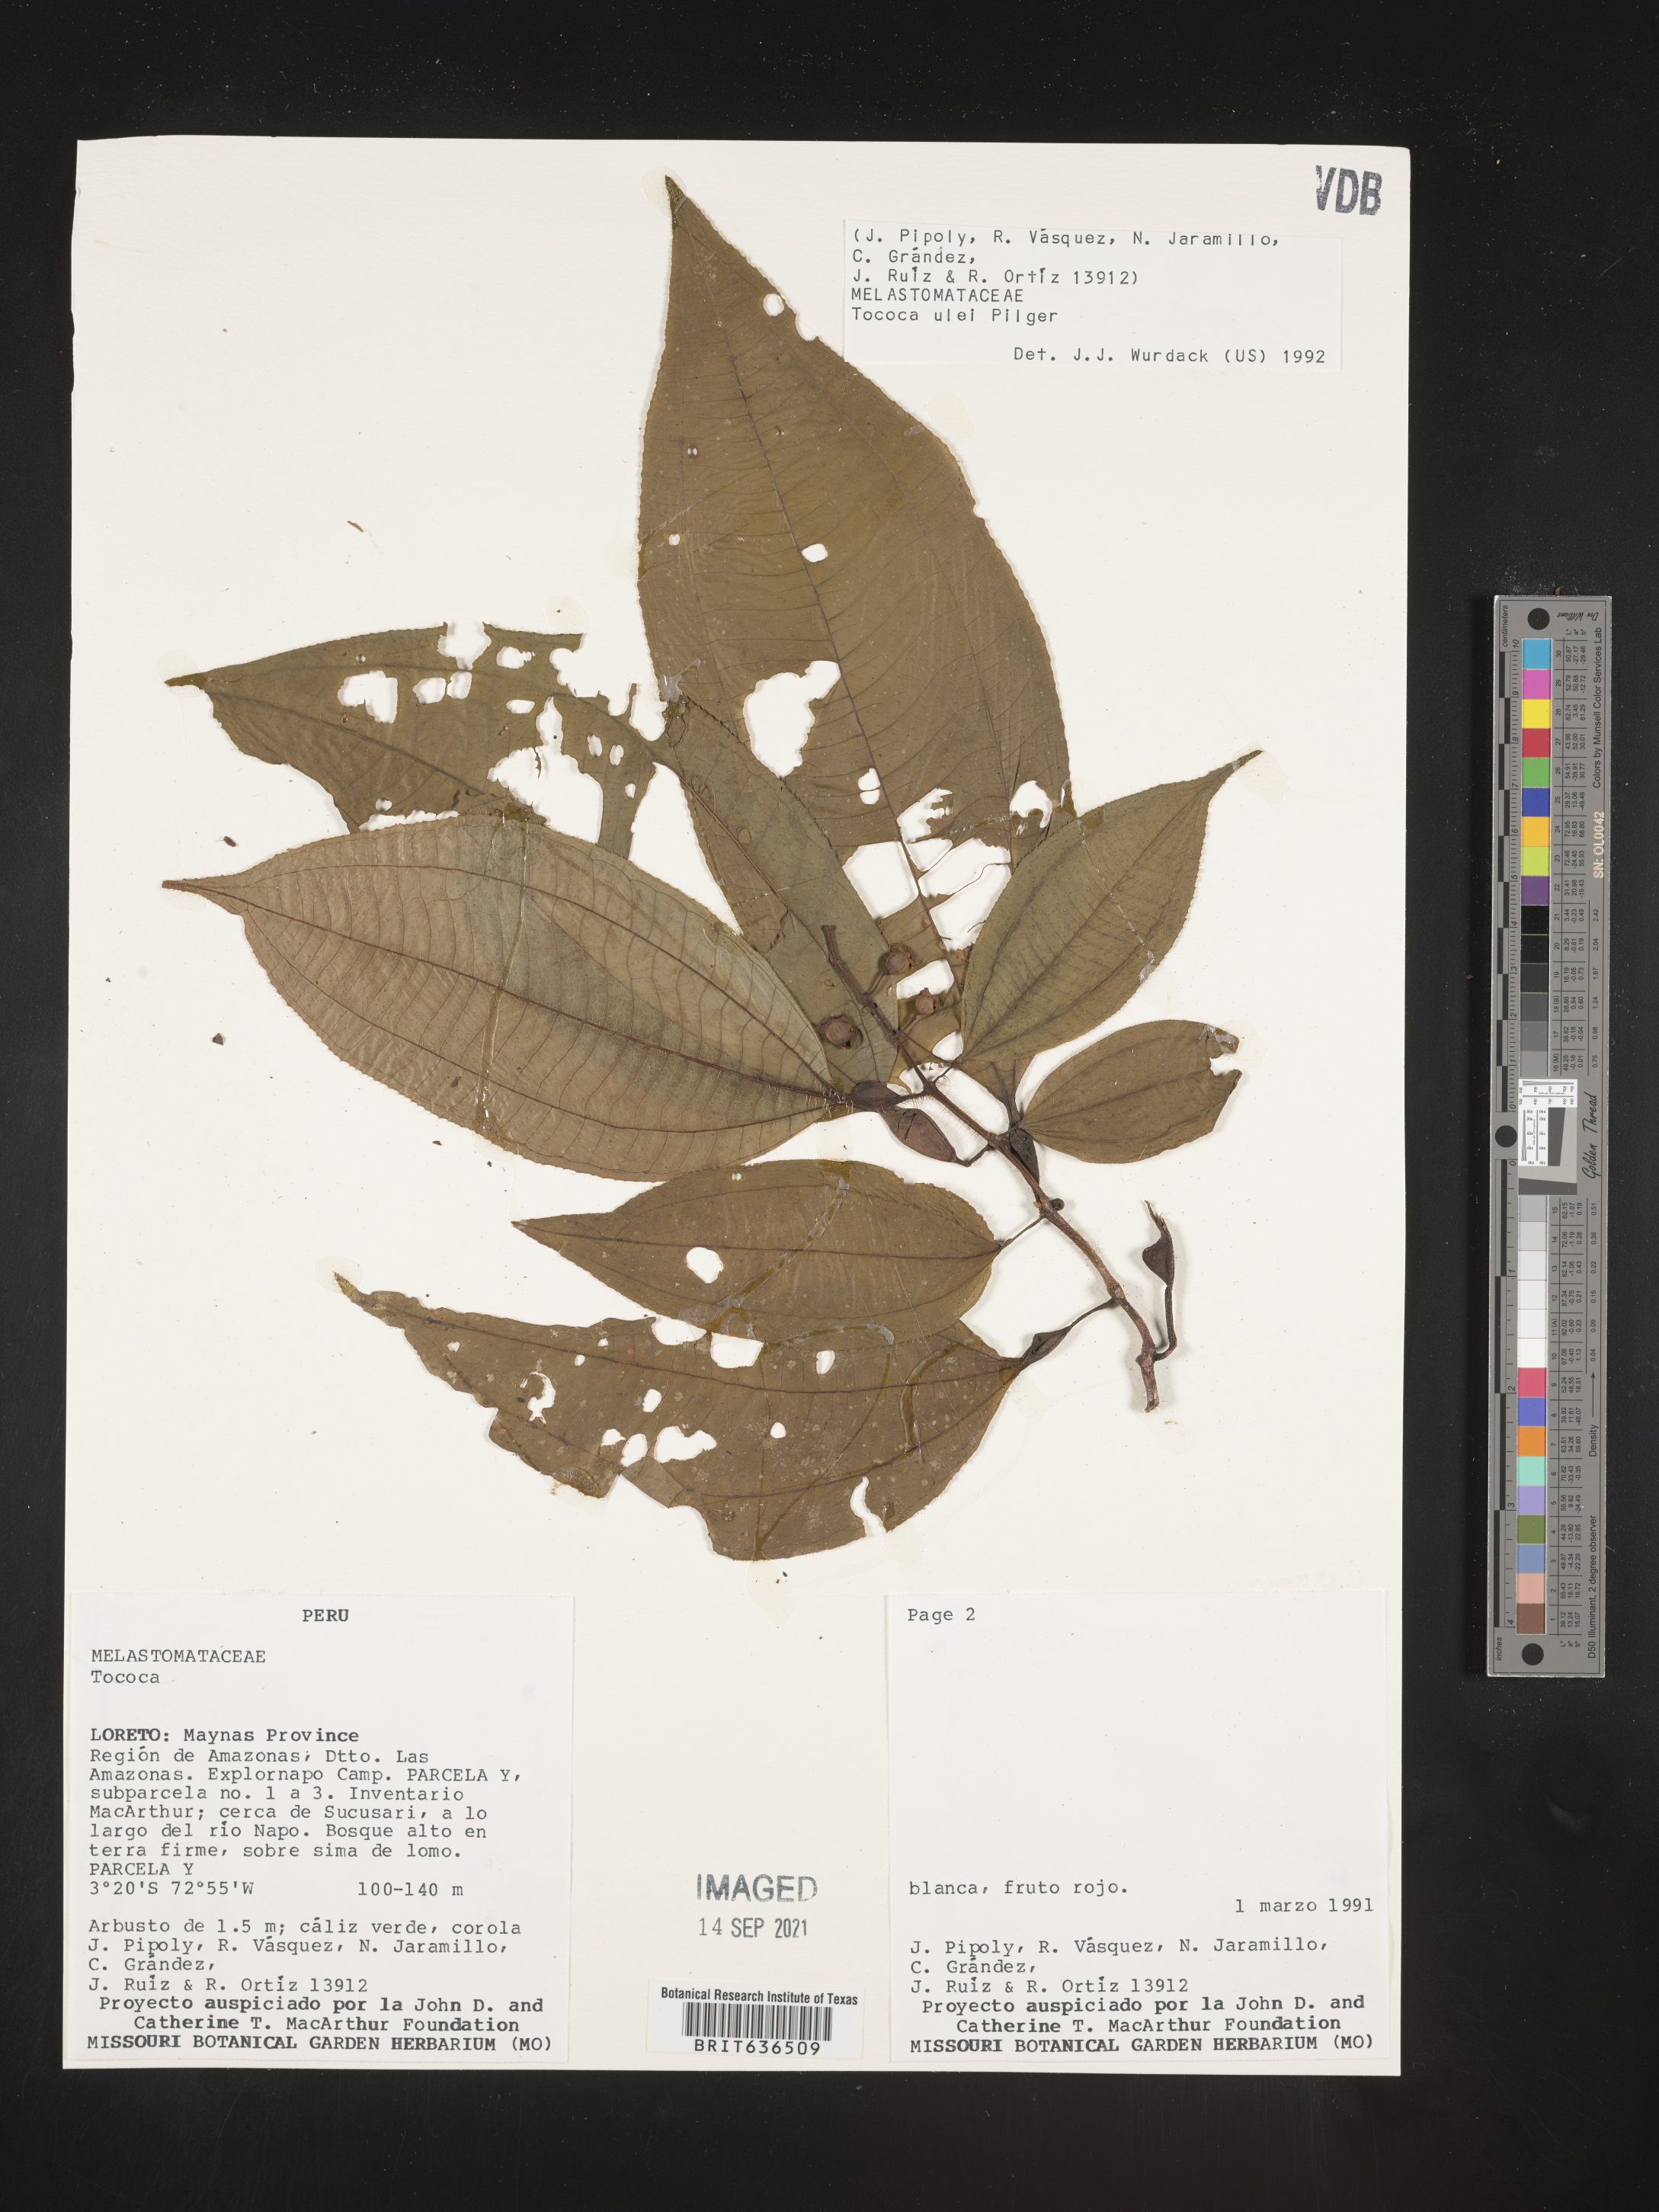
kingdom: Plantae
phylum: Tracheophyta
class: Magnoliopsida
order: Myrtales
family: Melastomataceae
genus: Tibouchina
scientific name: Tibouchina
